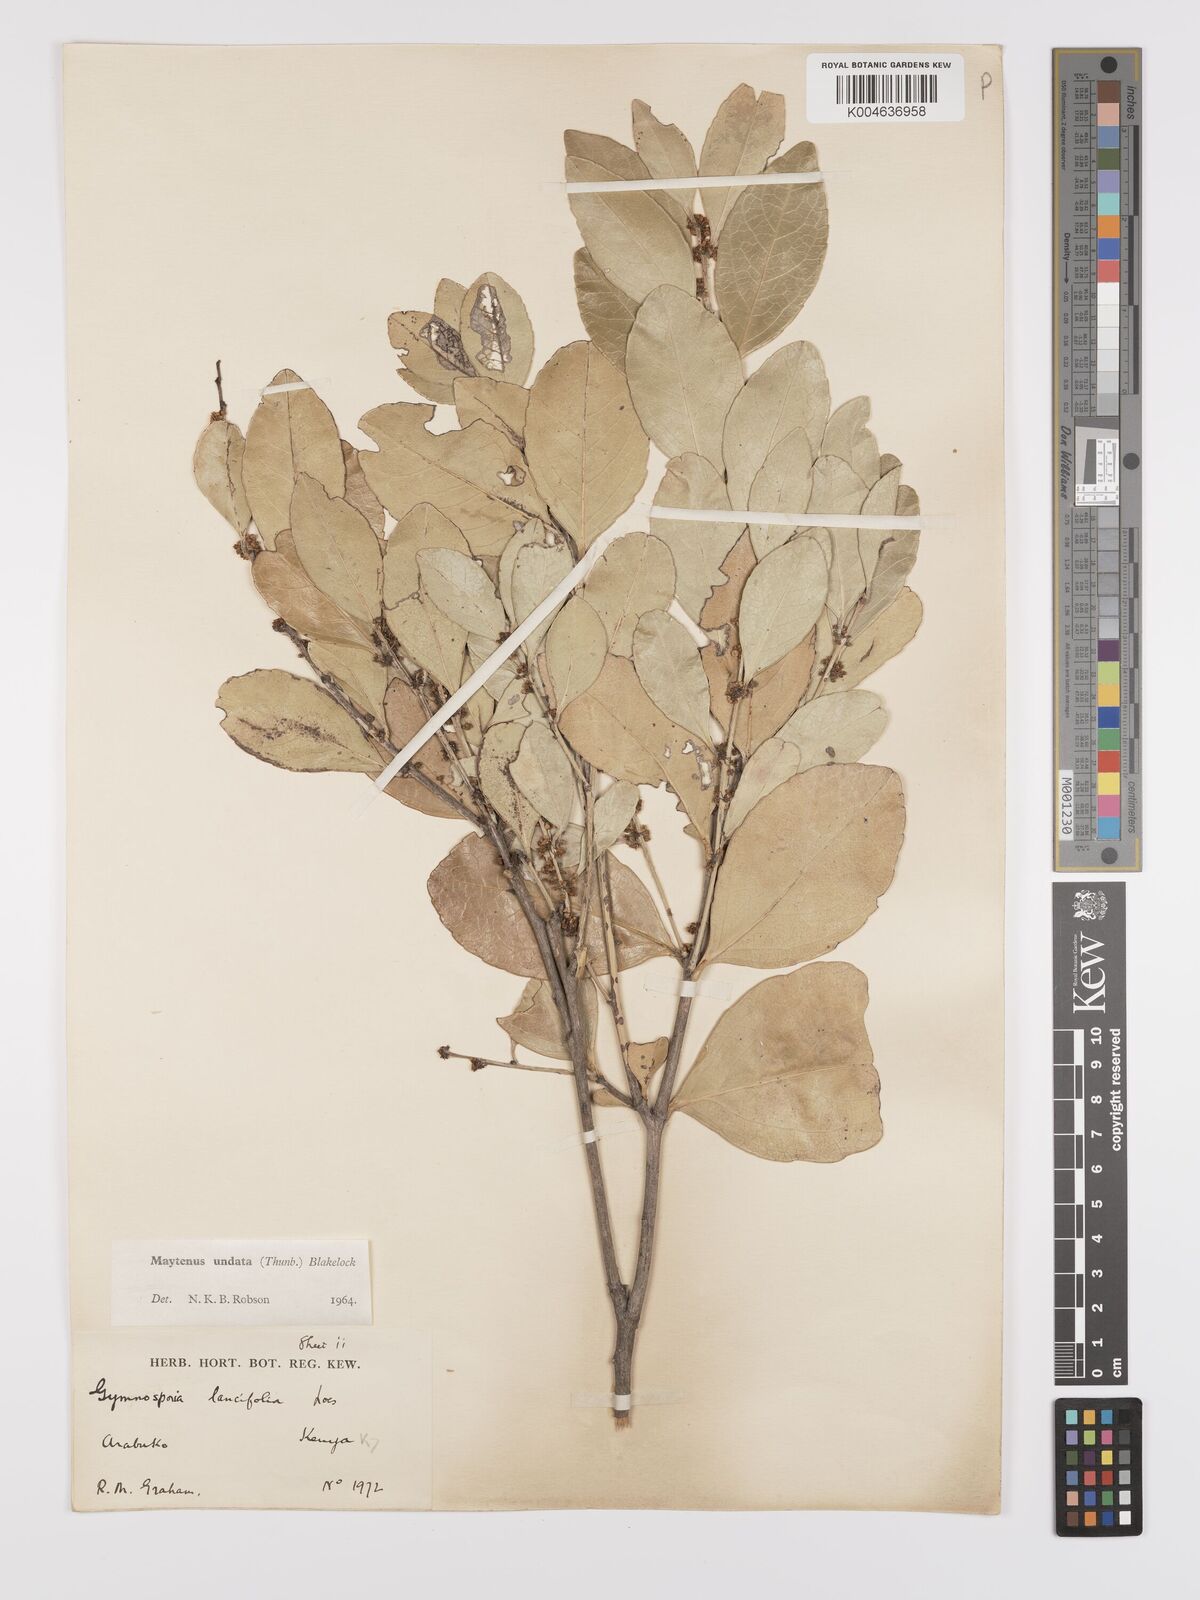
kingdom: Plantae
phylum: Tracheophyta
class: Magnoliopsida
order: Celastrales
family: Celastraceae
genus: Gymnosporia
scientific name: Gymnosporia undata
